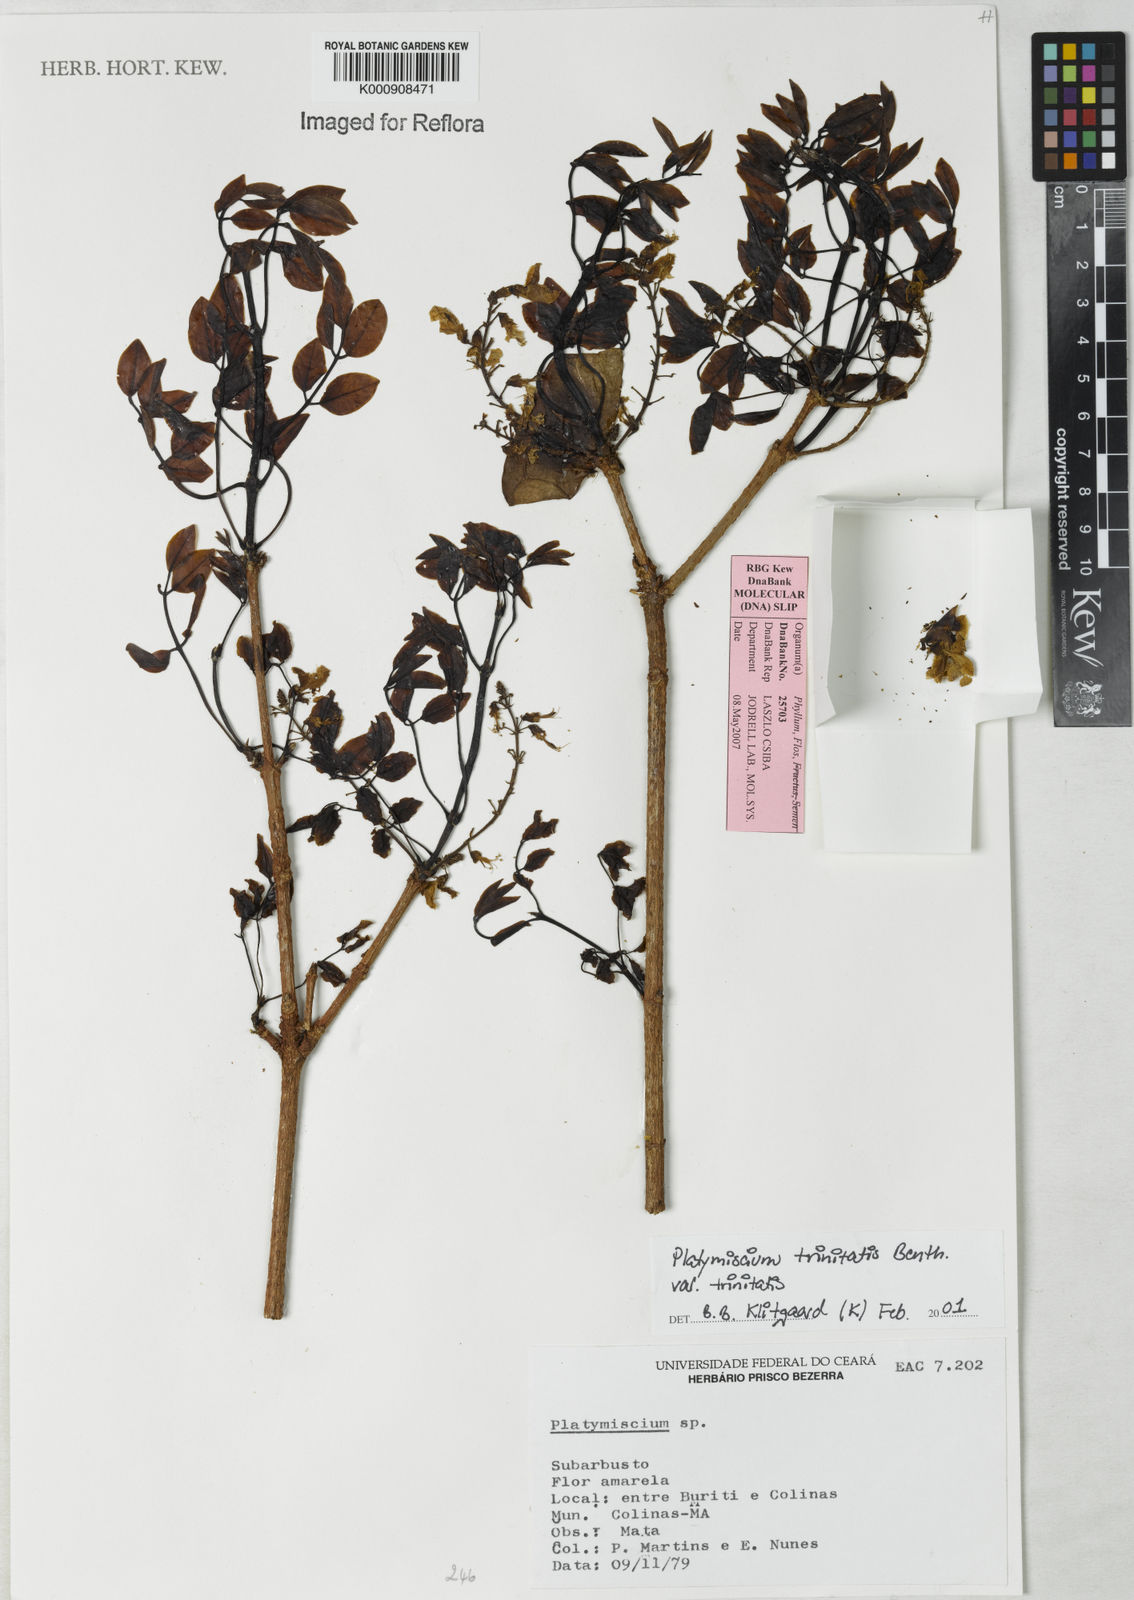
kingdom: Plantae
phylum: Tracheophyta
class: Magnoliopsida
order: Fabales
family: Fabaceae
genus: Platymiscium
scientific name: Platymiscium trinitatis
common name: Trinidad macawood
